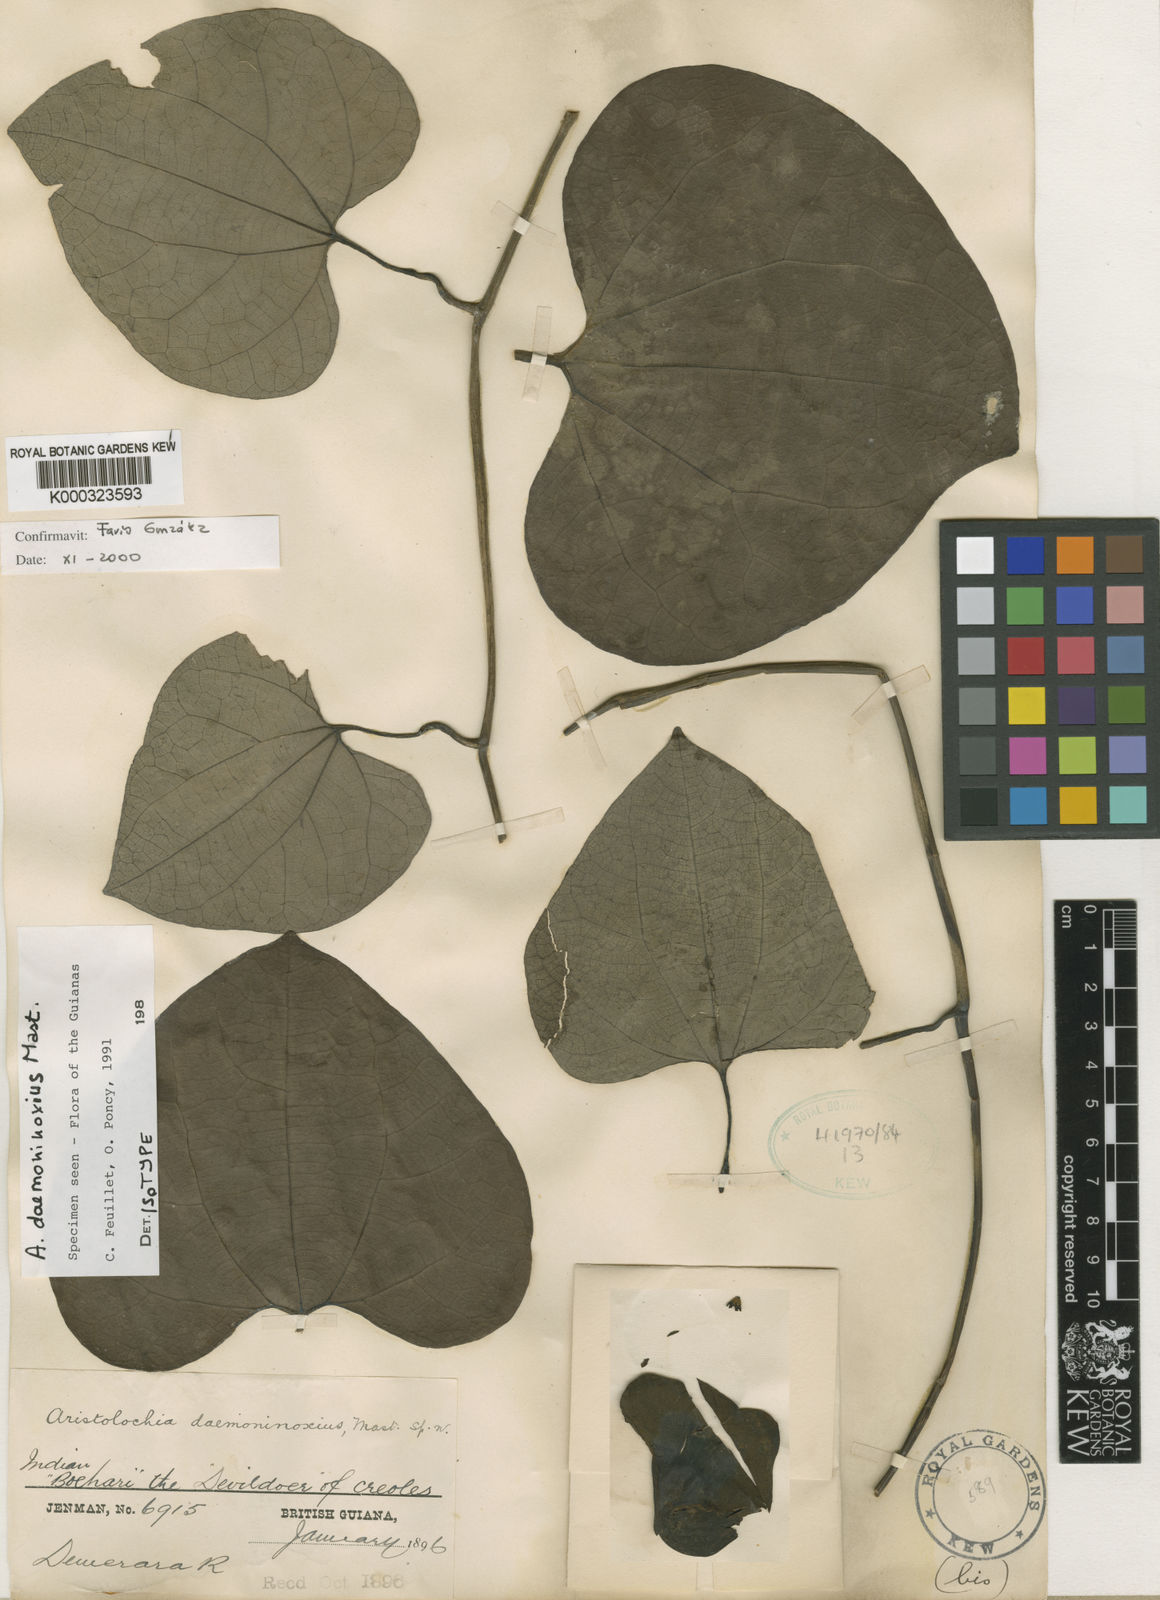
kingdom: Plantae
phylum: Tracheophyta
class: Magnoliopsida
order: Piperales
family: Aristolochiaceae
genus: Aristolochia
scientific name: Aristolochia daemoninoxia
